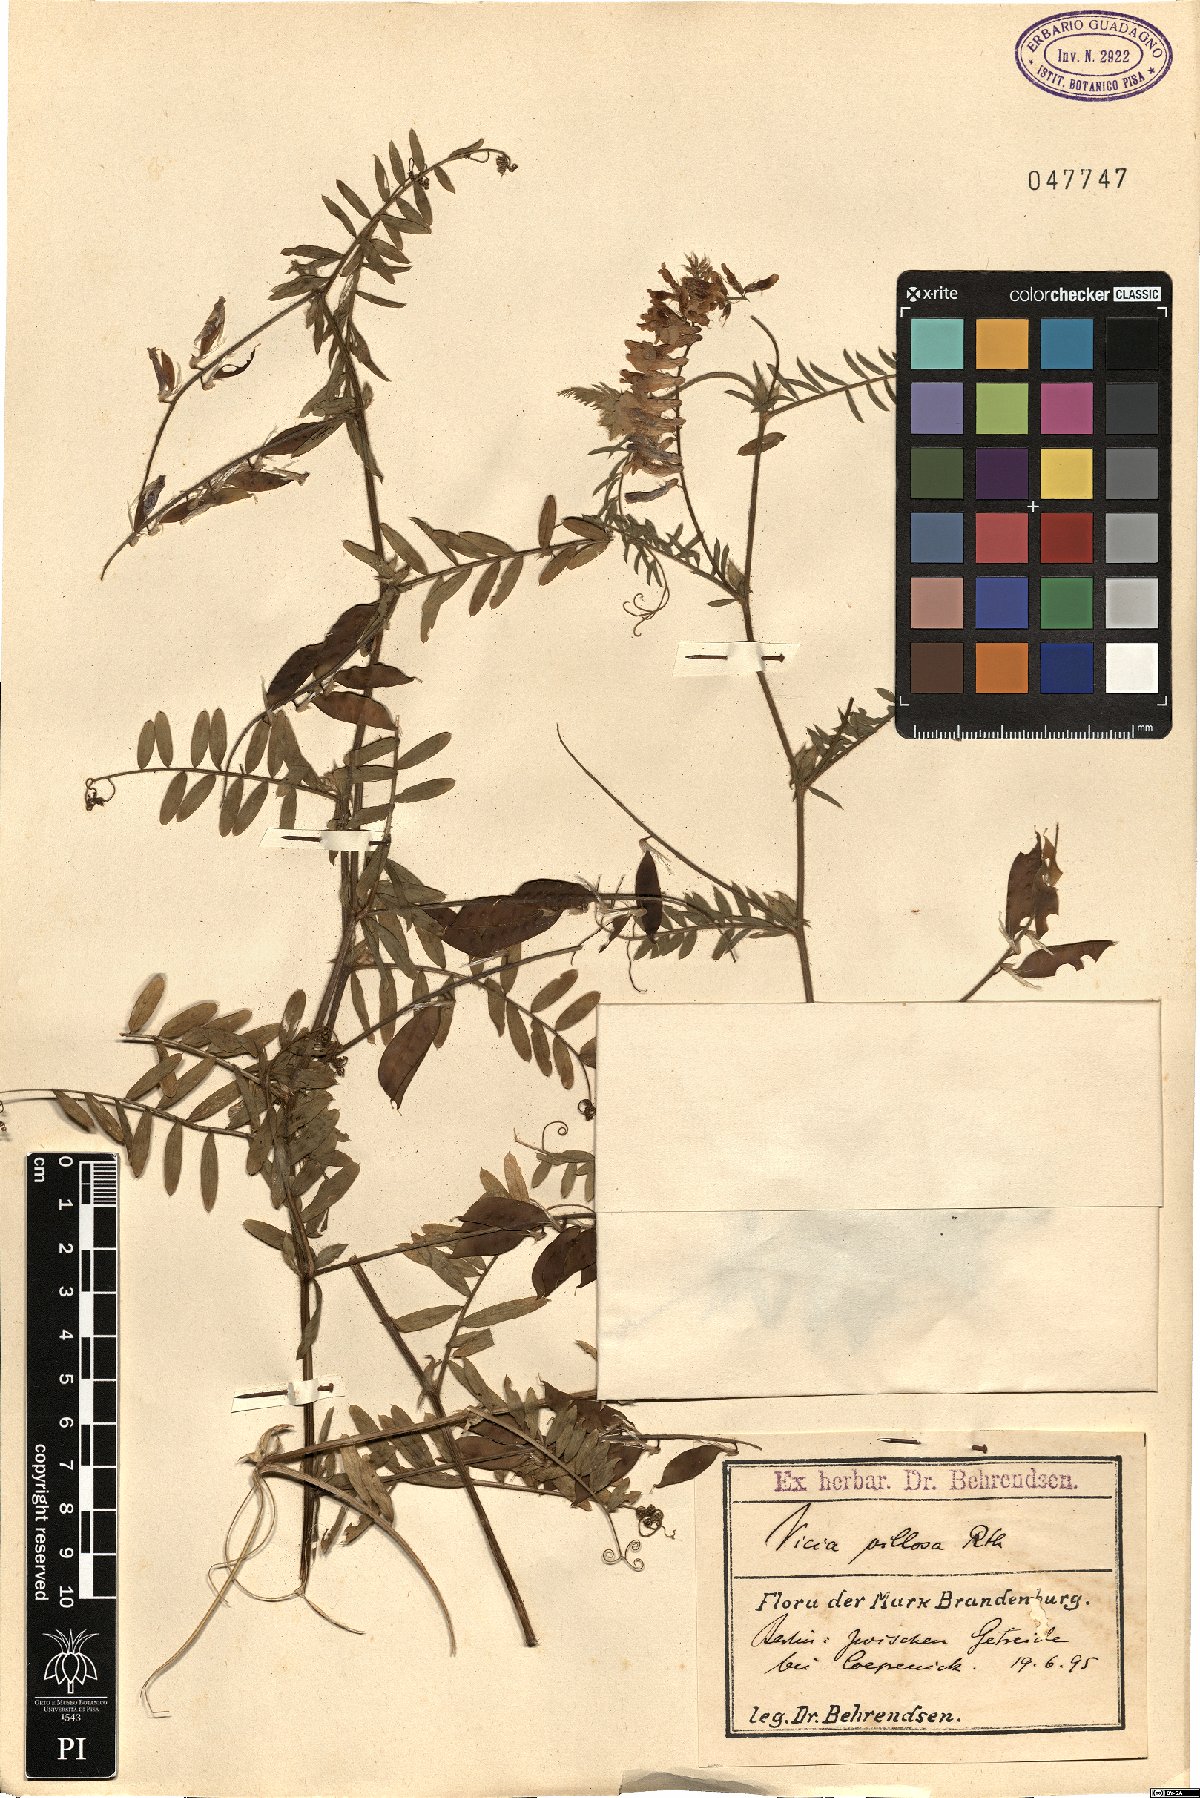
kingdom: Plantae
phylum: Tracheophyta
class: Magnoliopsida
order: Fabales
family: Fabaceae
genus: Vicia
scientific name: Vicia villosa
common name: Fodder vetch
